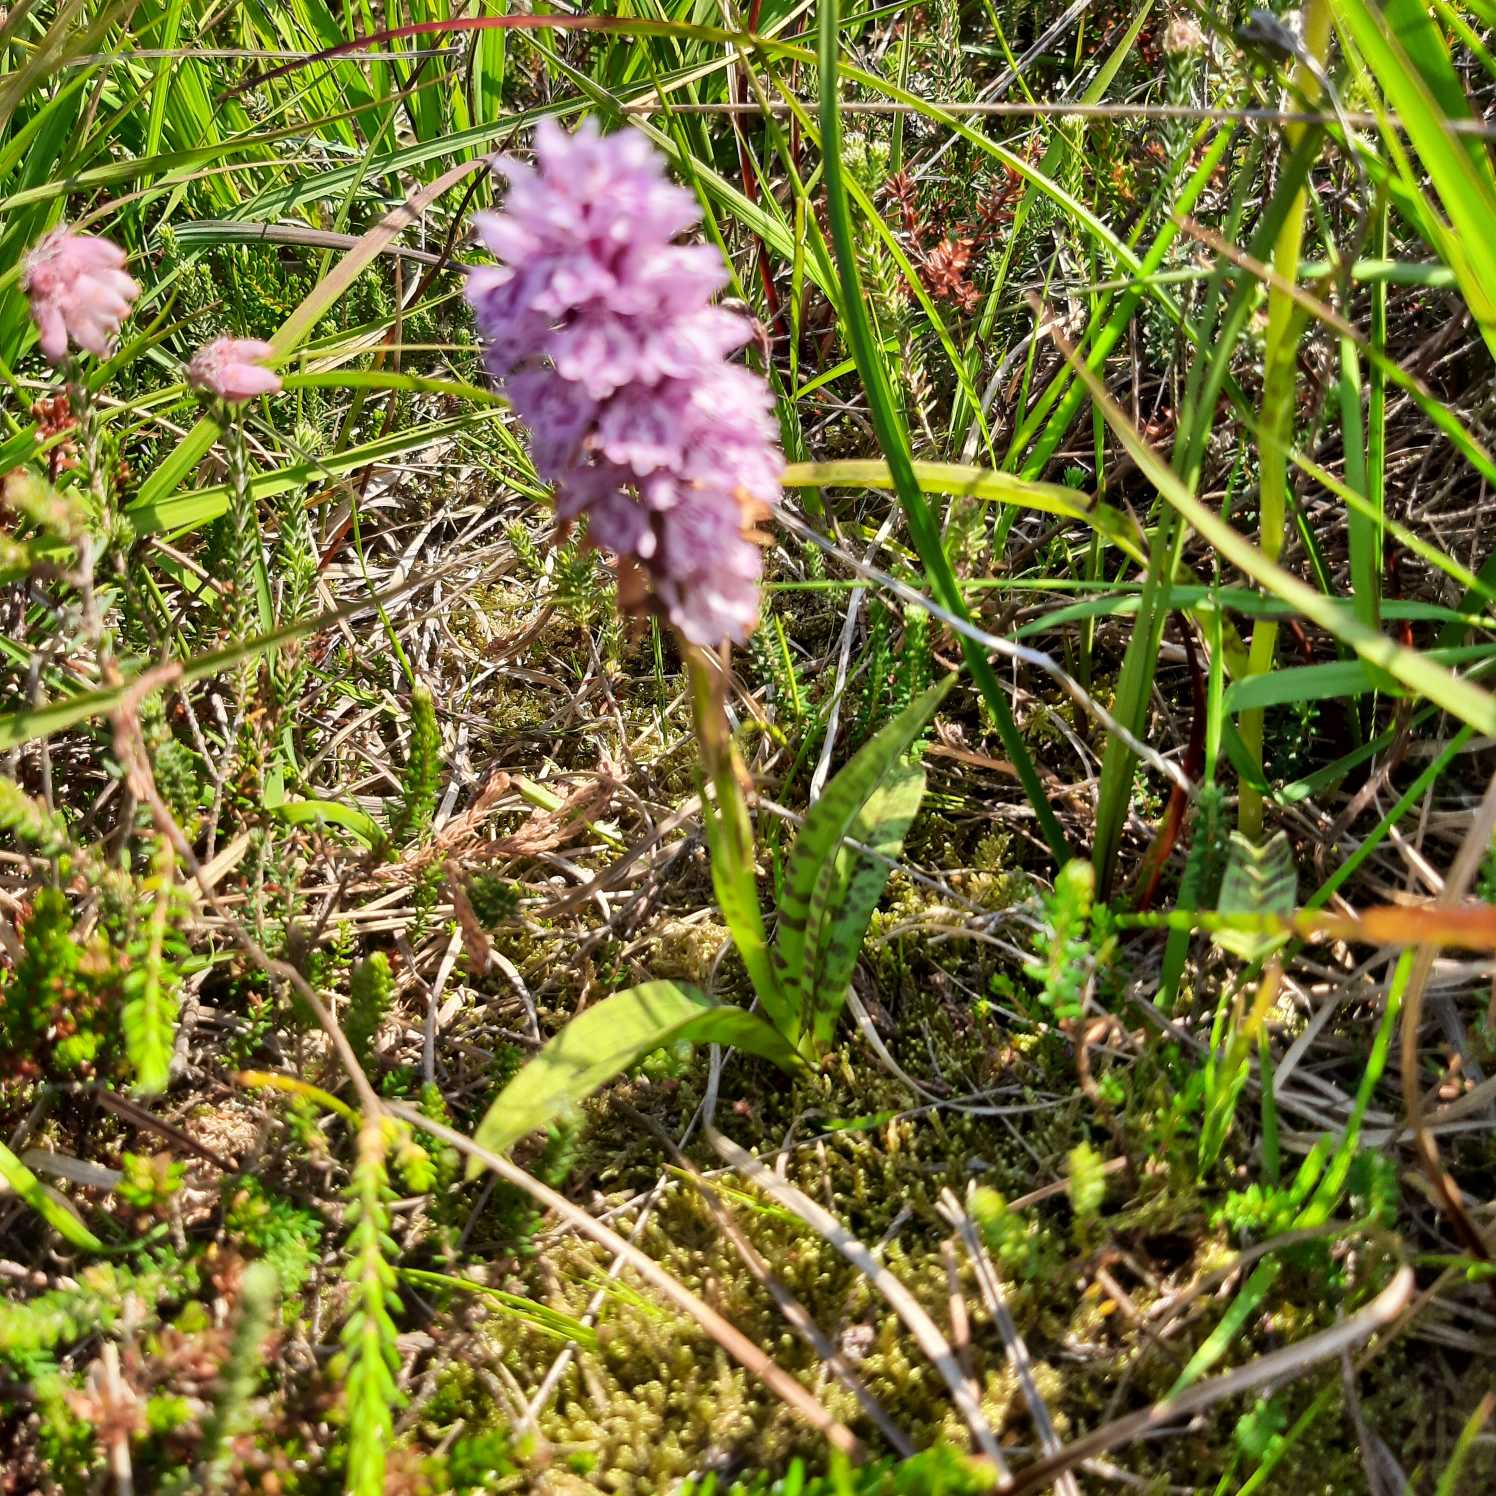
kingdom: Plantae
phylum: Tracheophyta
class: Liliopsida
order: Asparagales
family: Orchidaceae
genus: Dactylorhiza
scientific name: Dactylorhiza maculata
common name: Plettet gøgeurt
